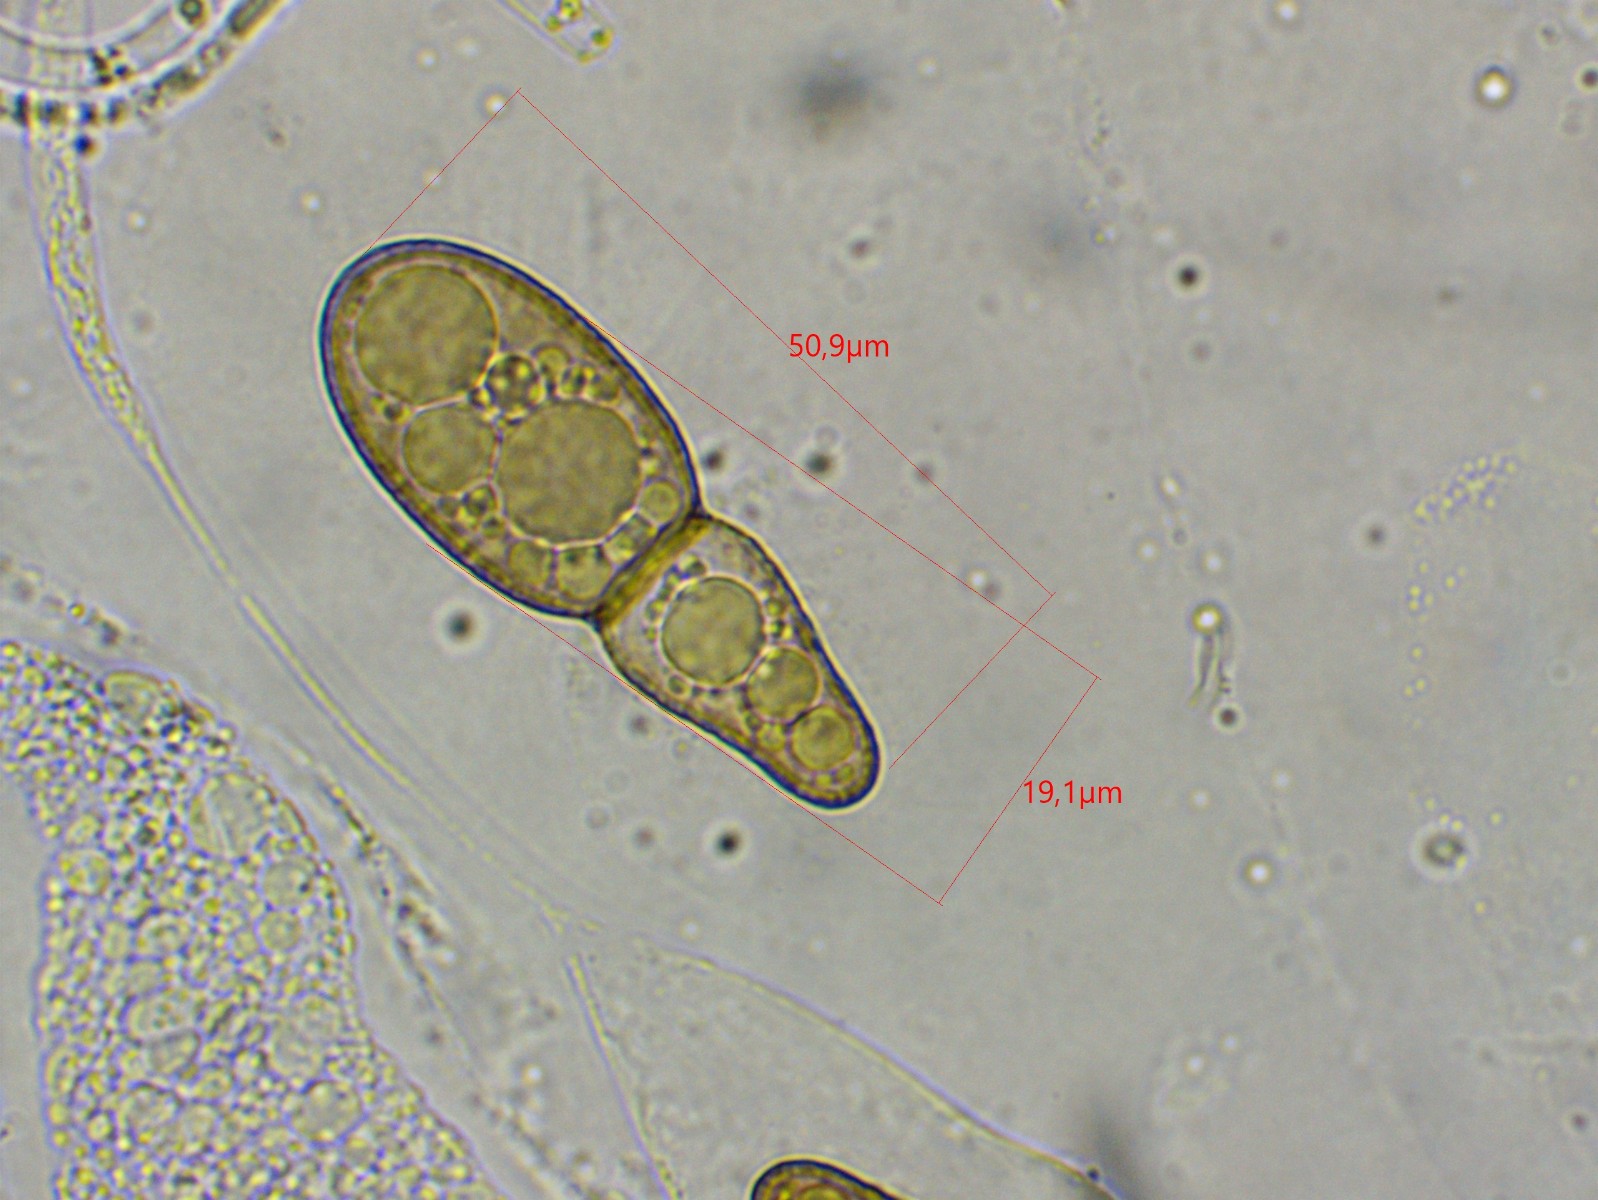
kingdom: Fungi
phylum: Ascomycota
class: Eurotiomycetes
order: Pyrenulales
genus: Splanchospora
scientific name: Splanchospora ampullacea
